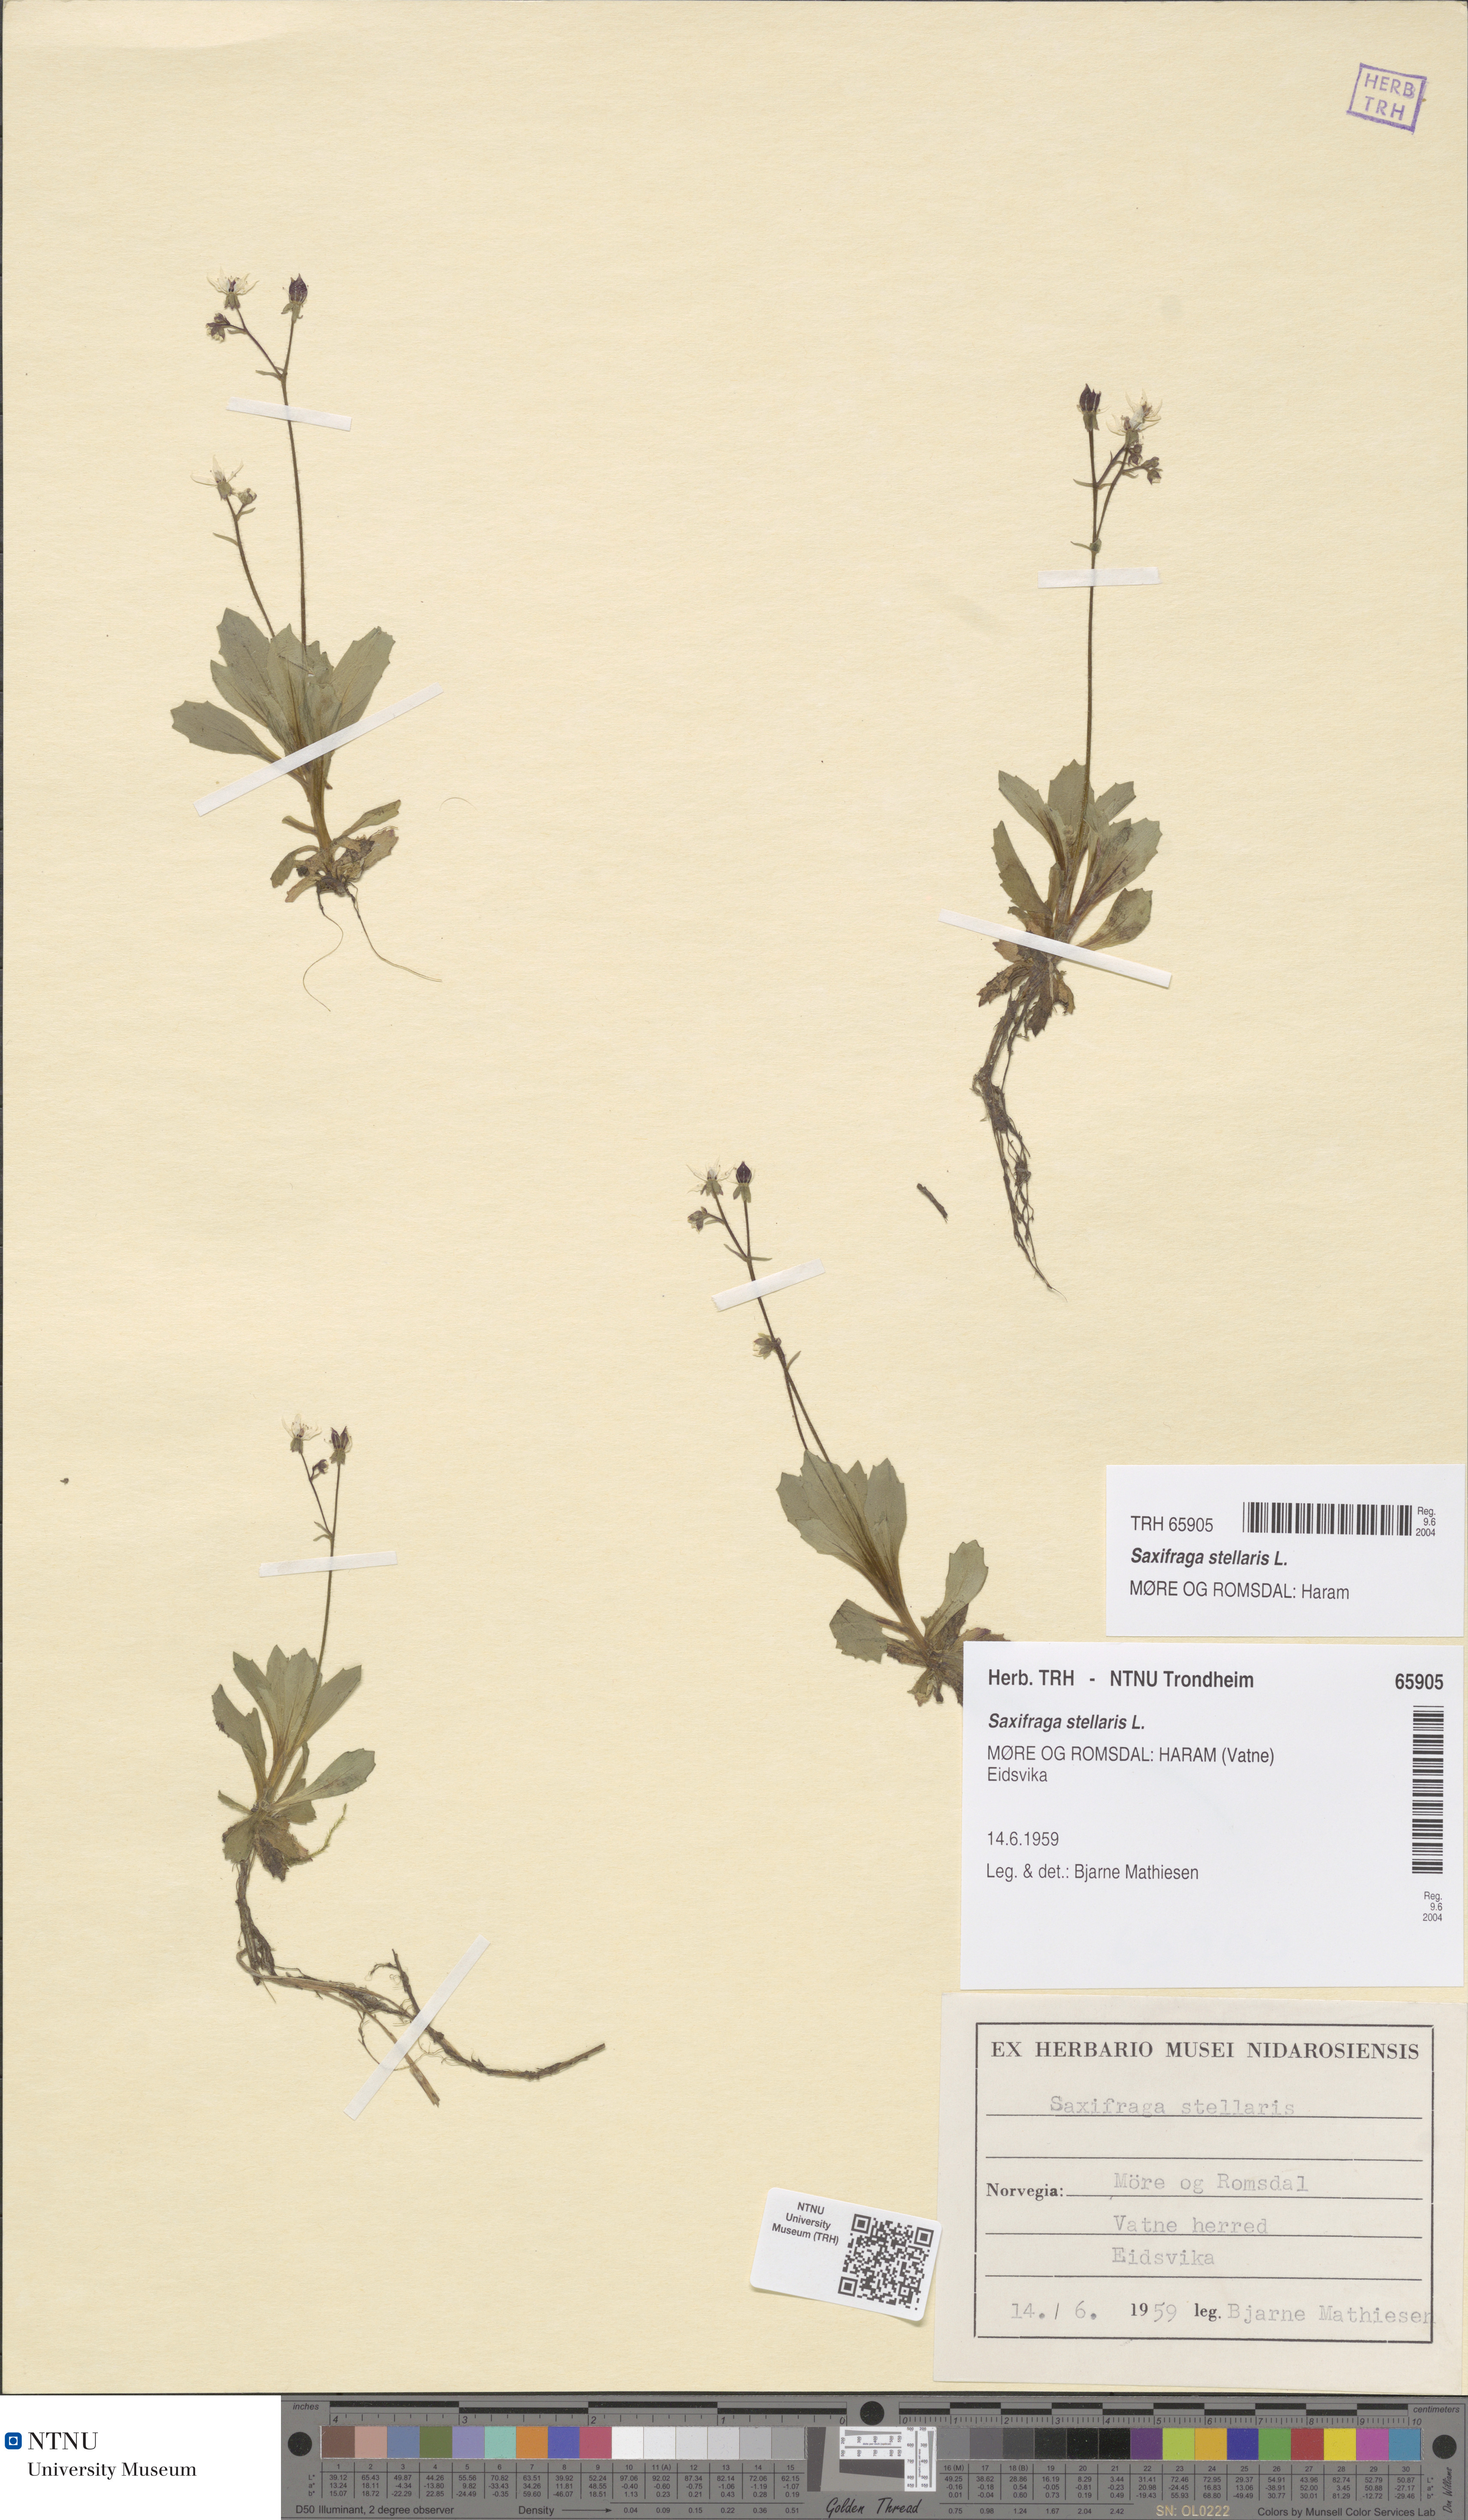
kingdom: Plantae
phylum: Tracheophyta
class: Magnoliopsida
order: Saxifragales
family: Saxifragaceae
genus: Micranthes
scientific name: Micranthes stellaris
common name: Starry saxifrage
